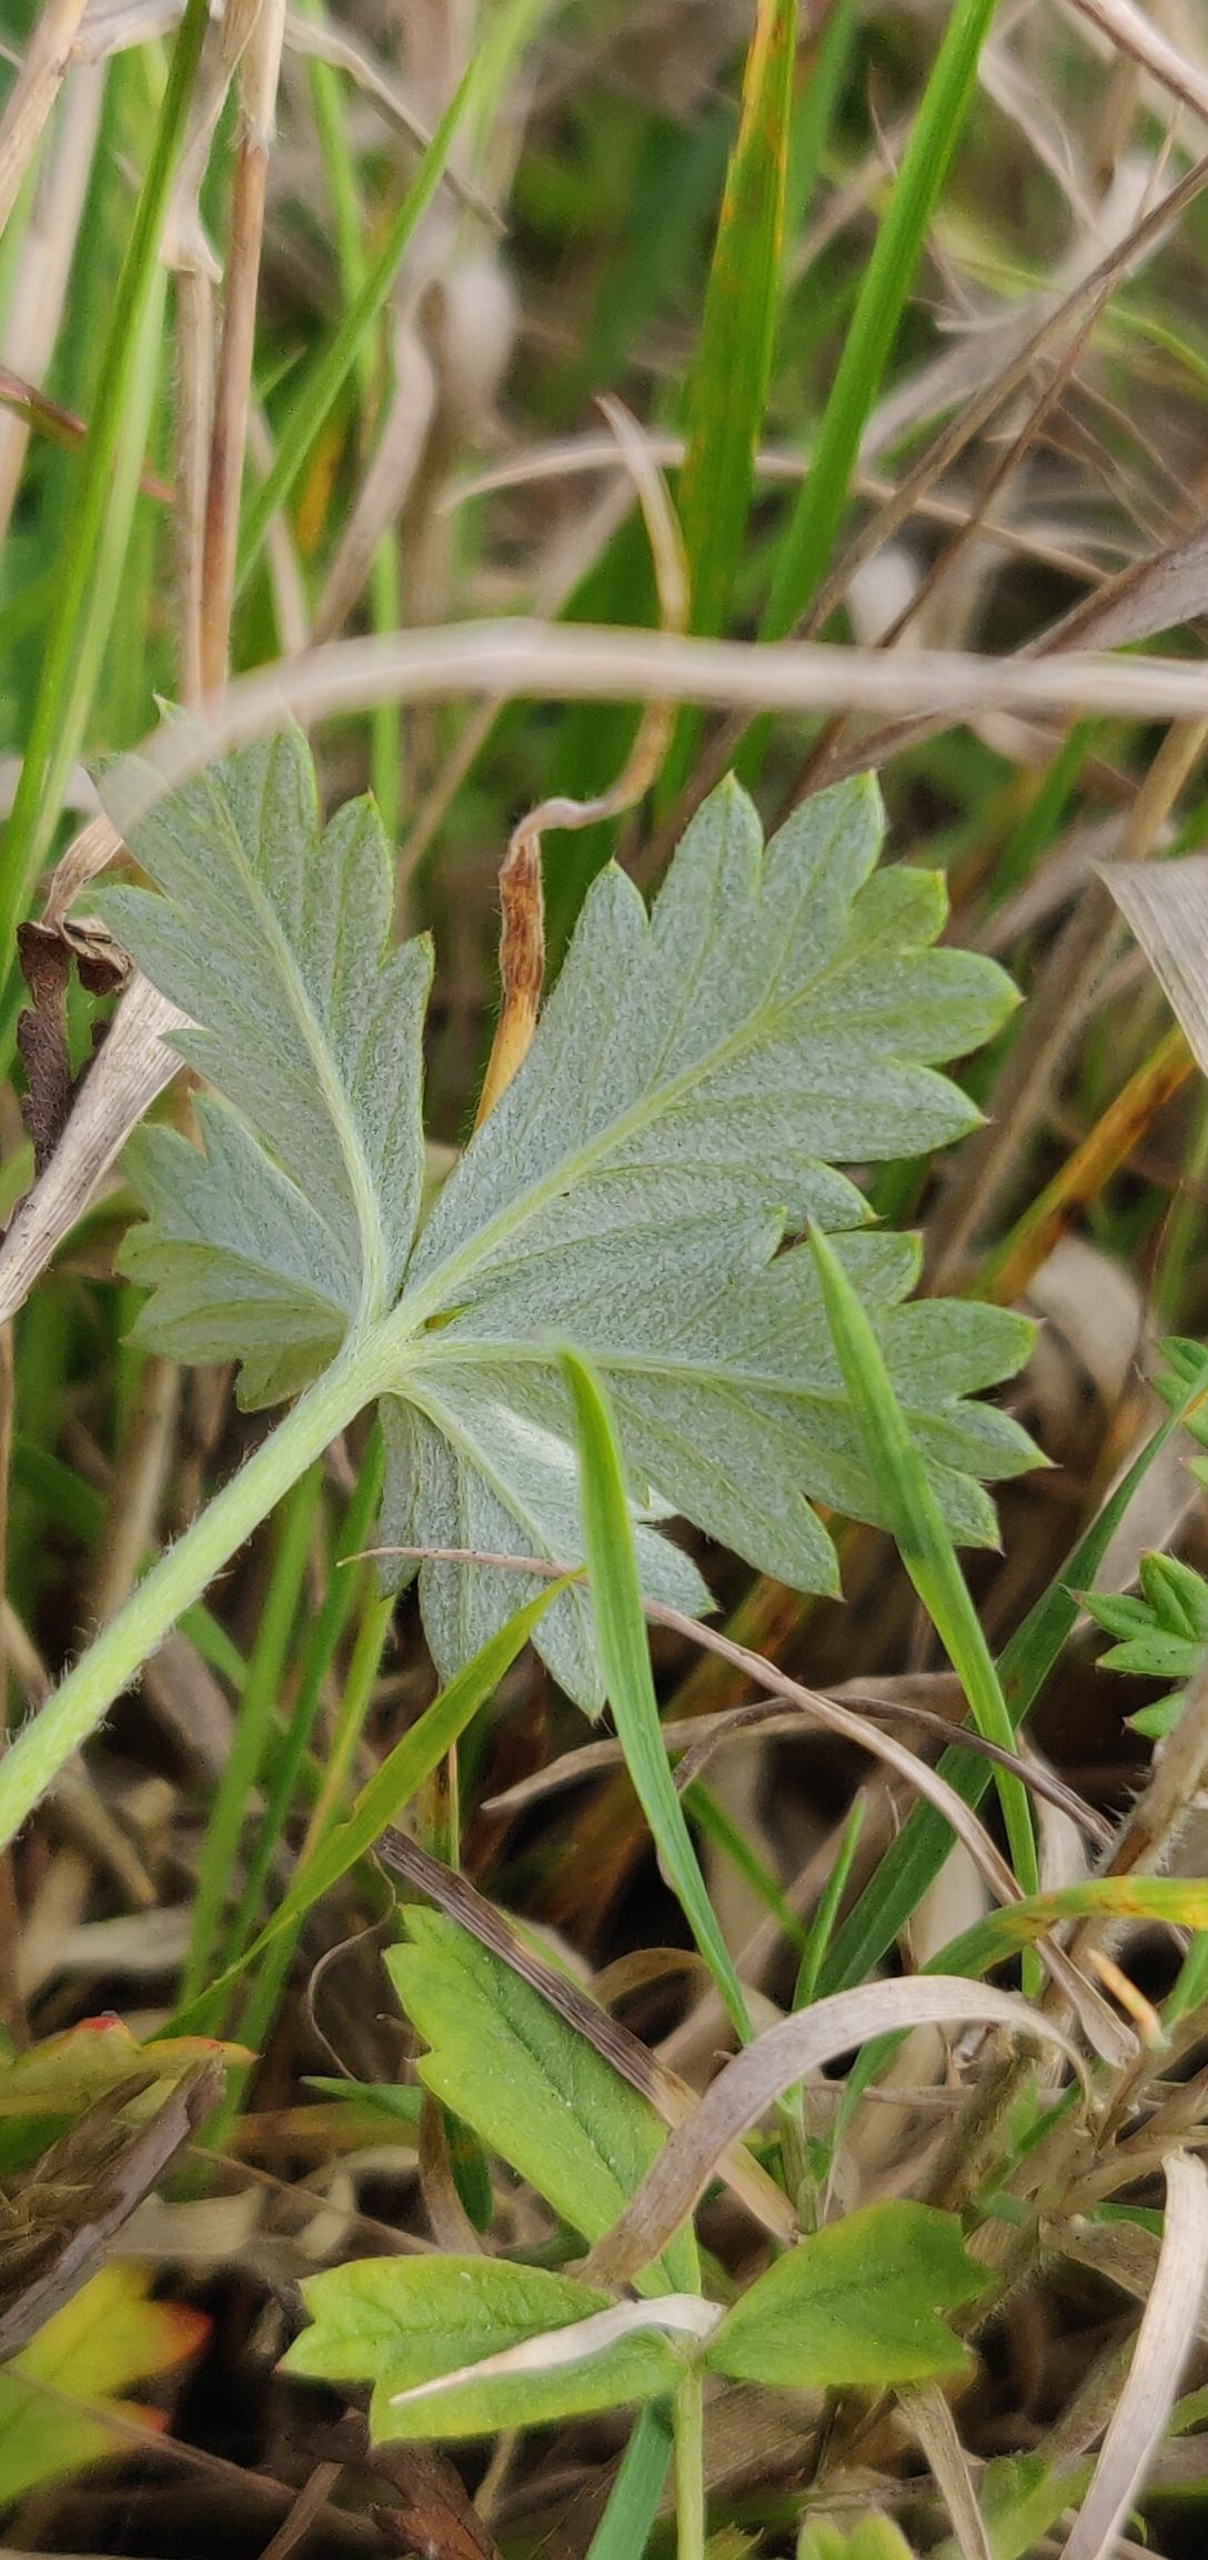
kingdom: Plantae
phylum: Tracheophyta
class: Magnoliopsida
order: Rosales
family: Rosaceae
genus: Potentilla
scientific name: Potentilla argentea
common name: Sølv-potentil
